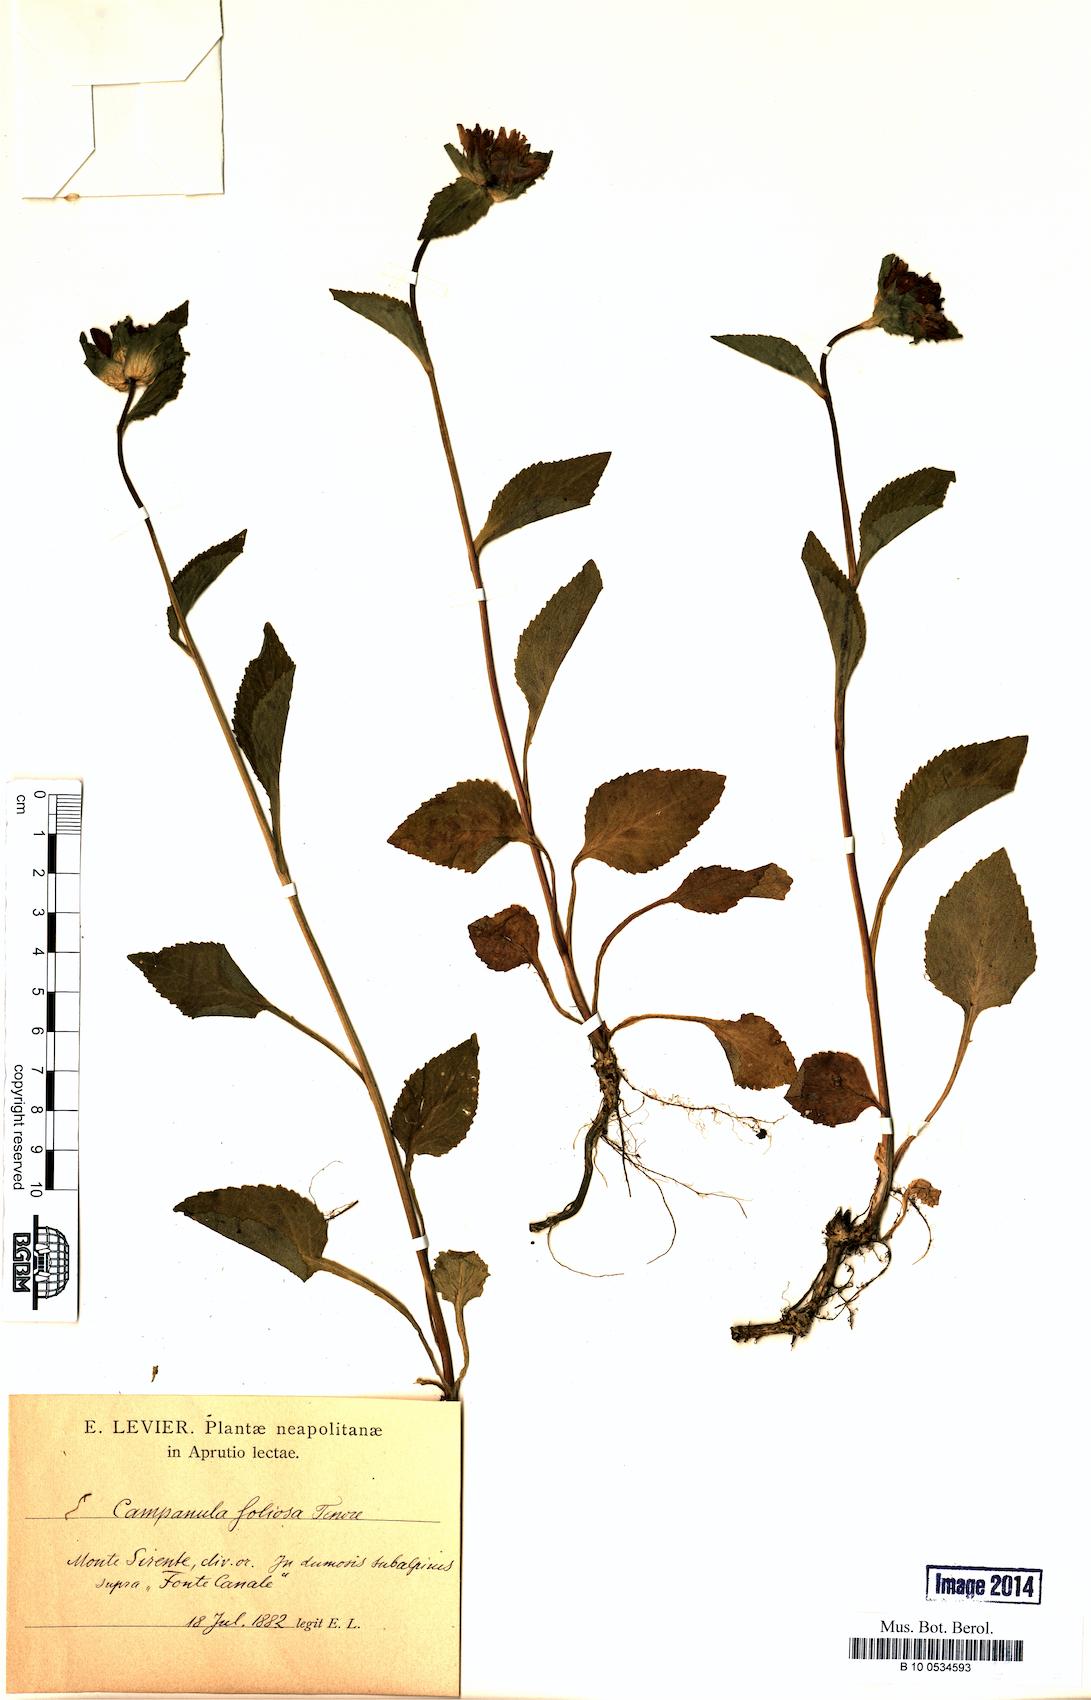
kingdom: Plantae
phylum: Tracheophyta
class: Magnoliopsida
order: Asterales
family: Campanulaceae
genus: Campanula
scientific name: Campanula foliosa
